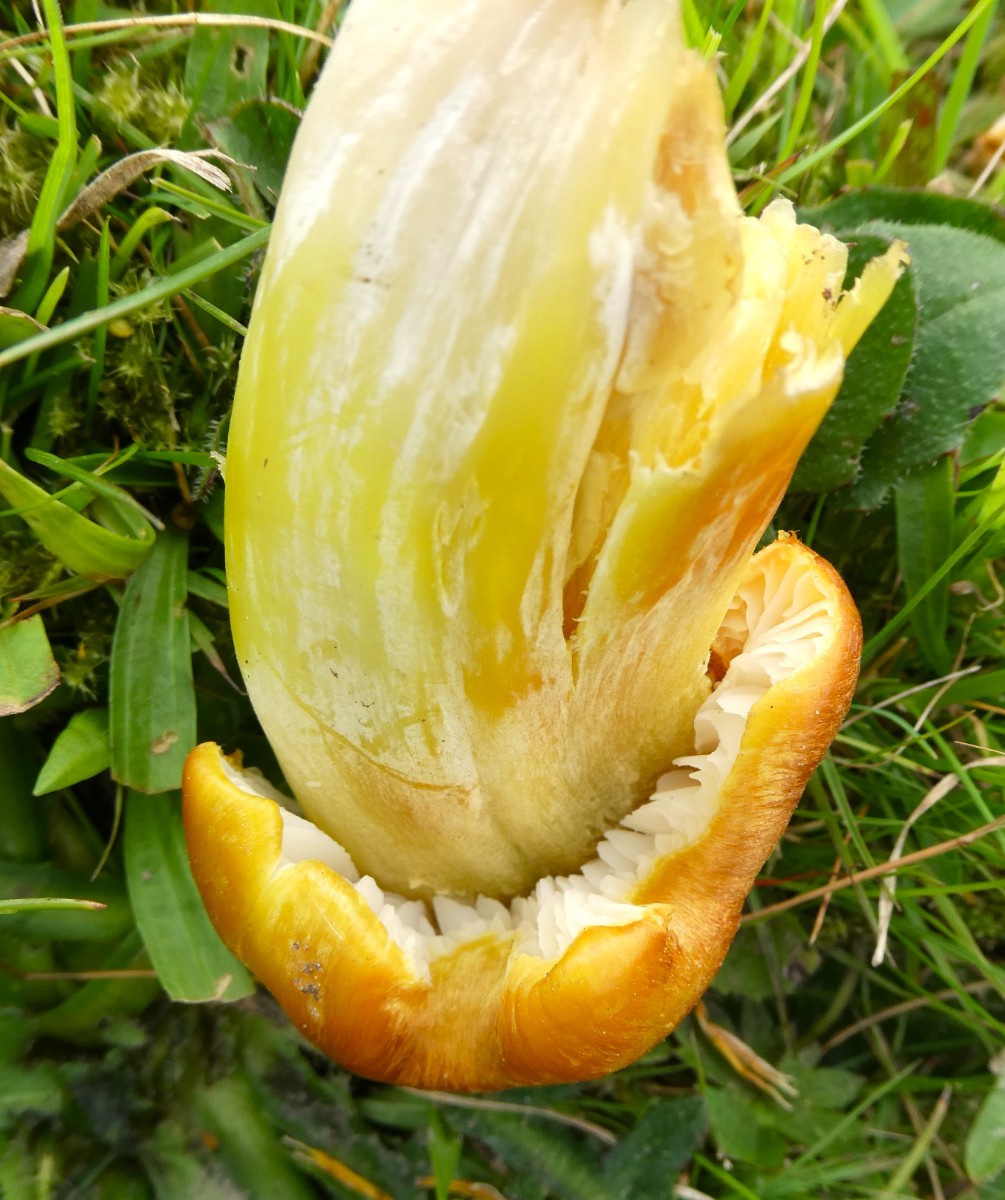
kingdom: Fungi
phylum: Basidiomycota
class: Agaricomycetes
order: Agaricales
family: Hygrophoraceae
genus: Hygrocybe
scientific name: Hygrocybe citrinovirens
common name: grøngul vokshat
